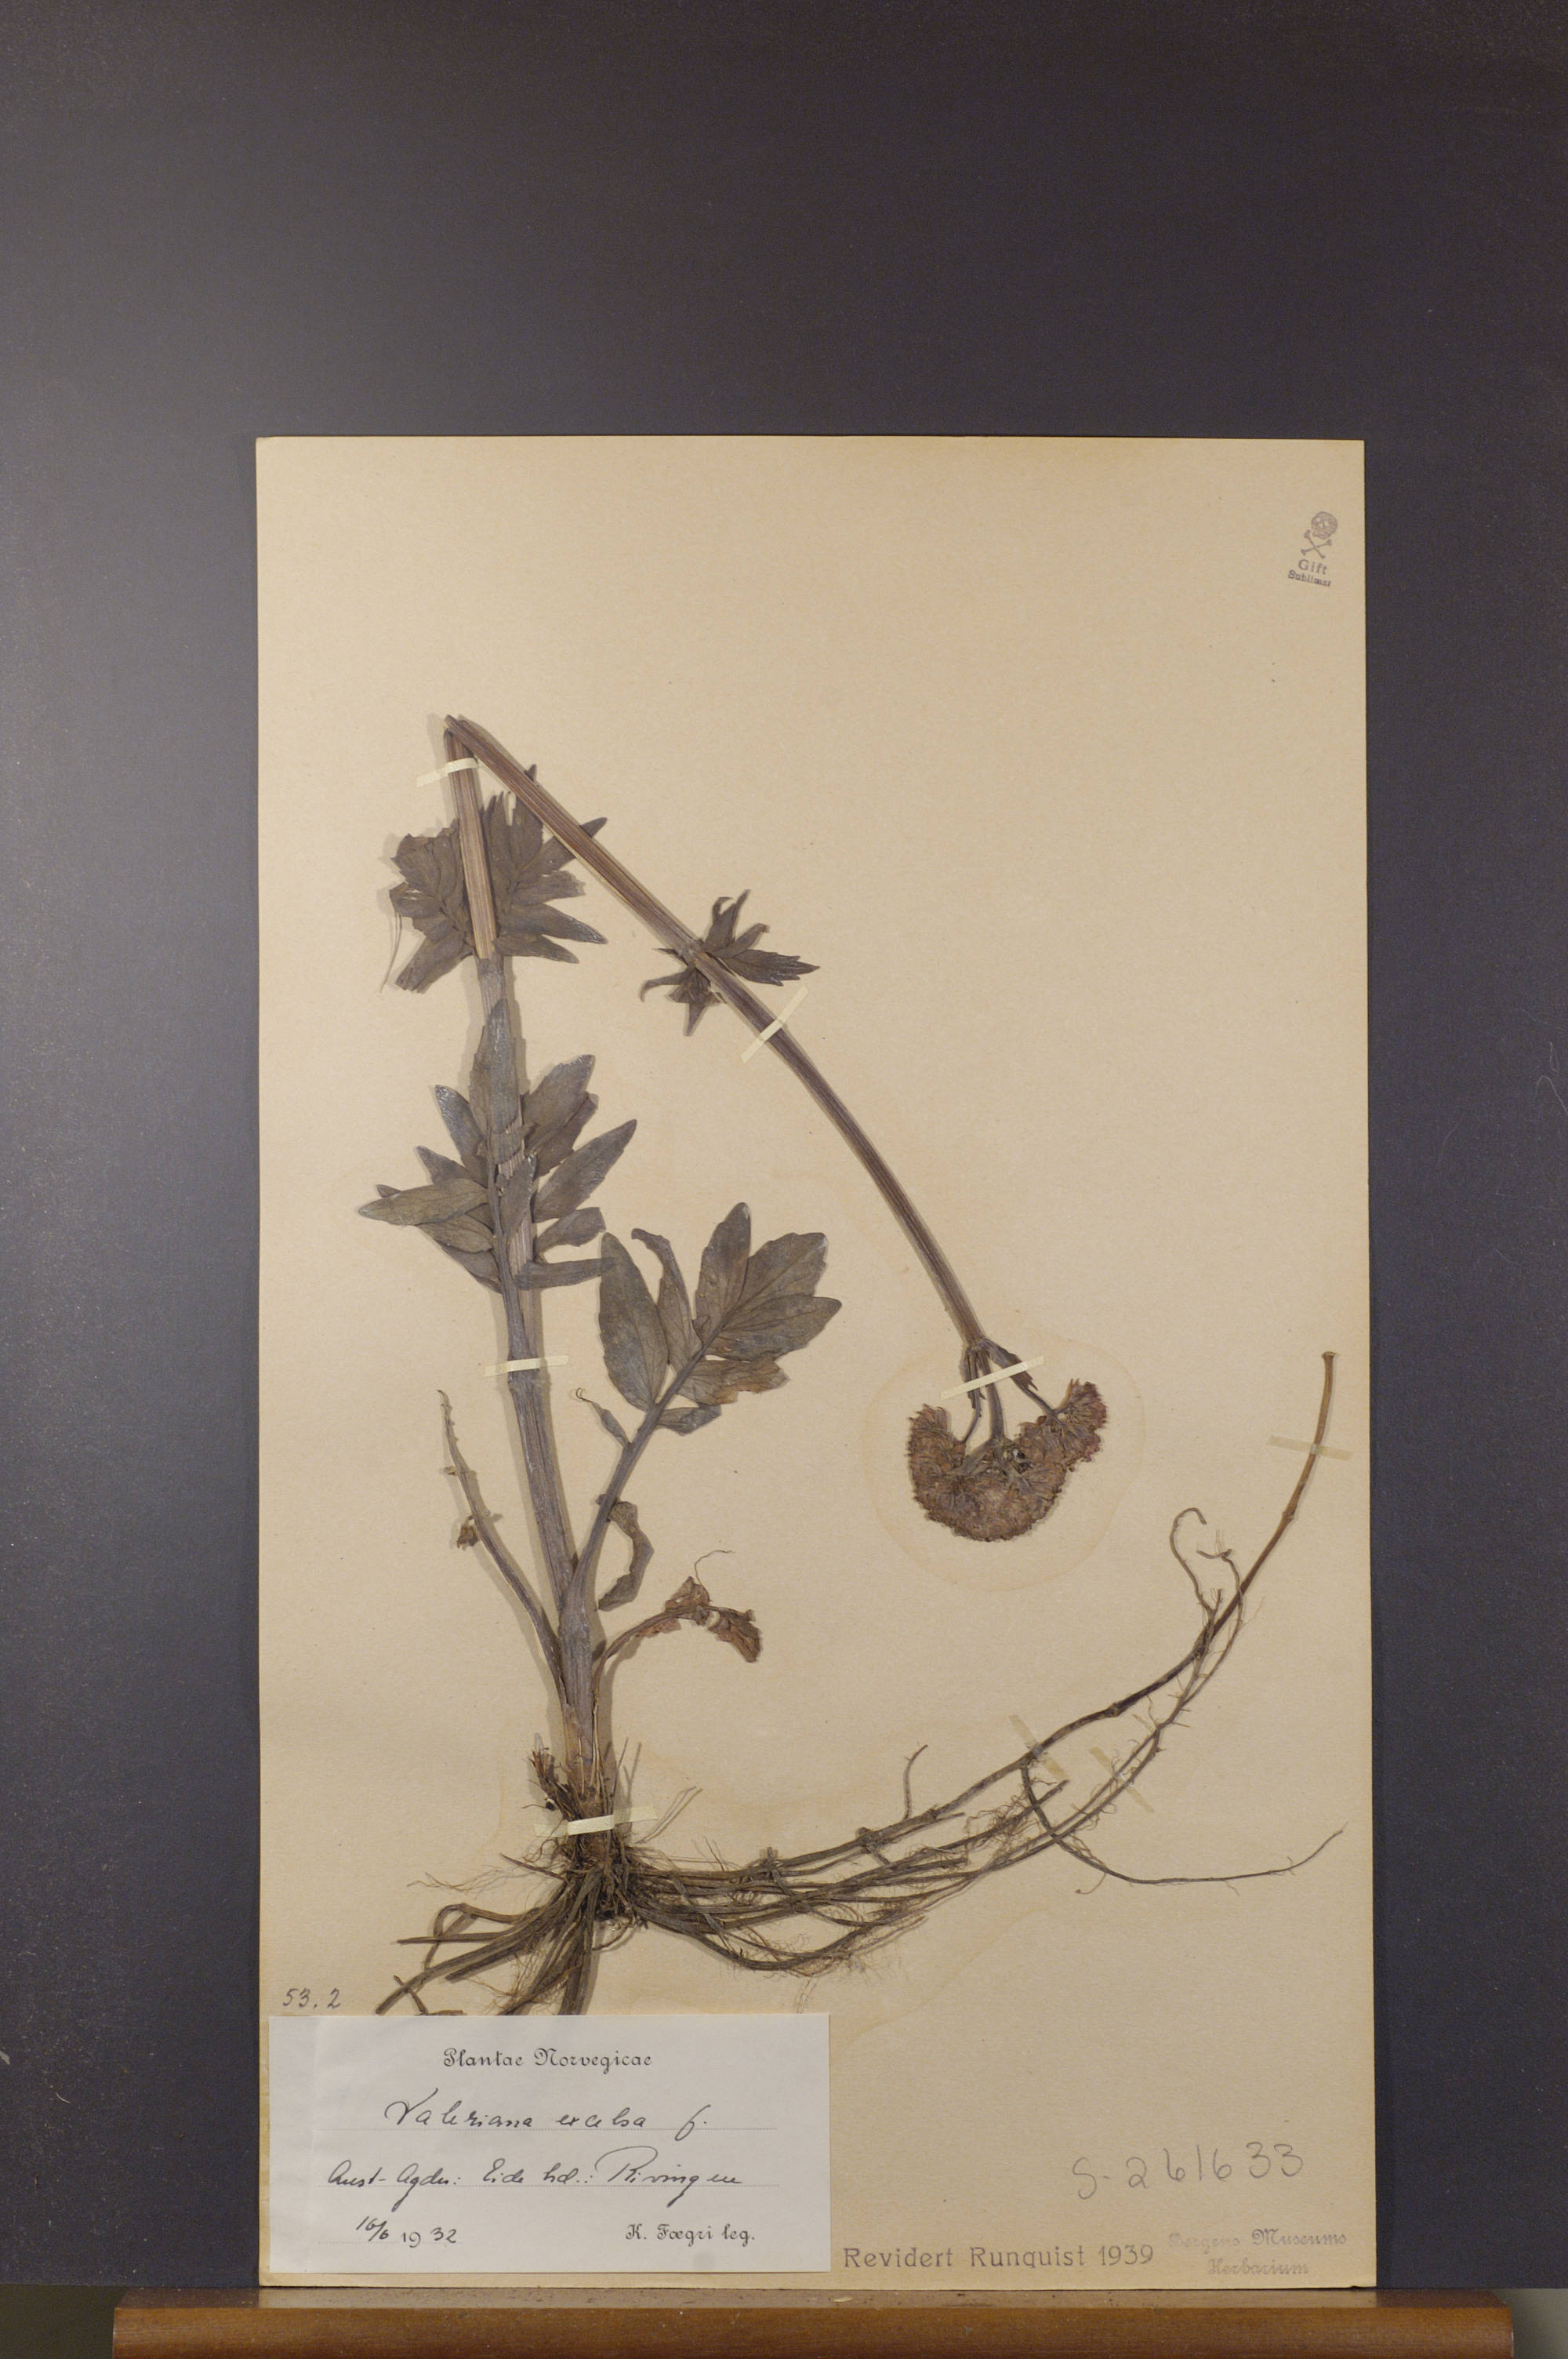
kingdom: Plantae
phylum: Tracheophyta
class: Magnoliopsida
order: Dipsacales
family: Caprifoliaceae
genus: Valeriana
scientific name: Valeriana sambucifolia
